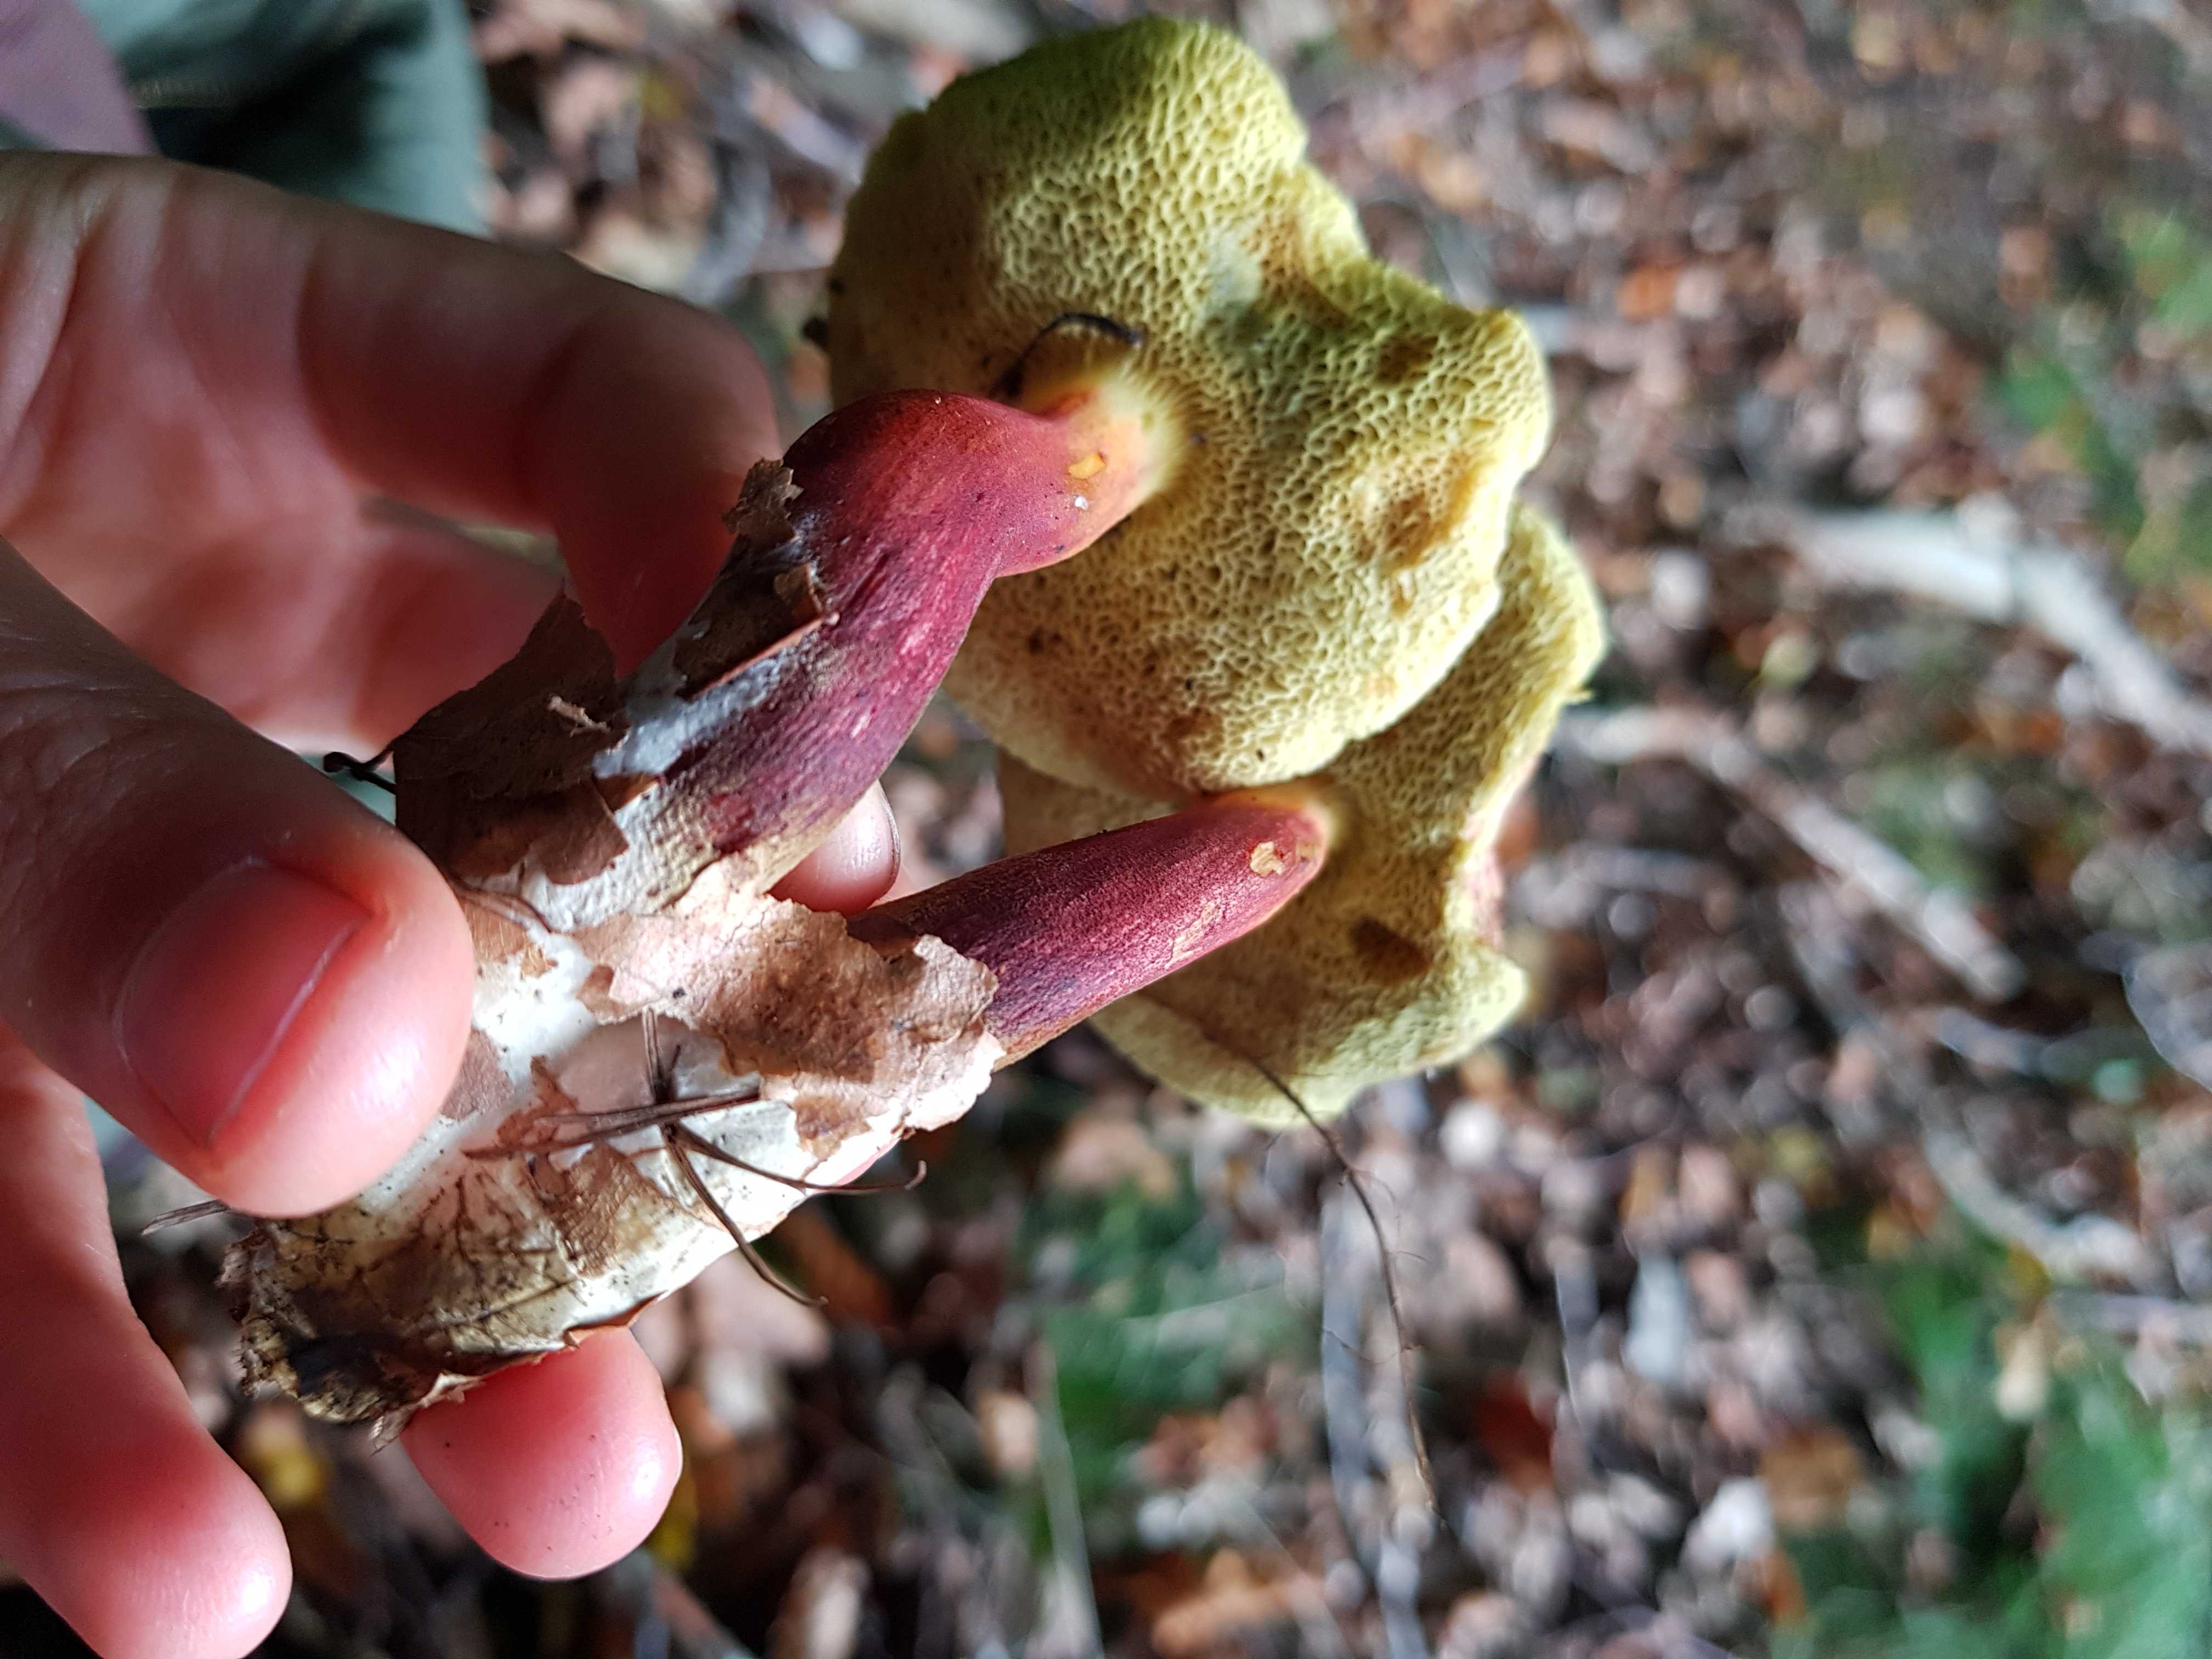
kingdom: Fungi
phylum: Basidiomycota
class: Agaricomycetes
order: Boletales
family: Boletaceae
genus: Xerocomellus
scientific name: Xerocomellus
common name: dværgrørhat
